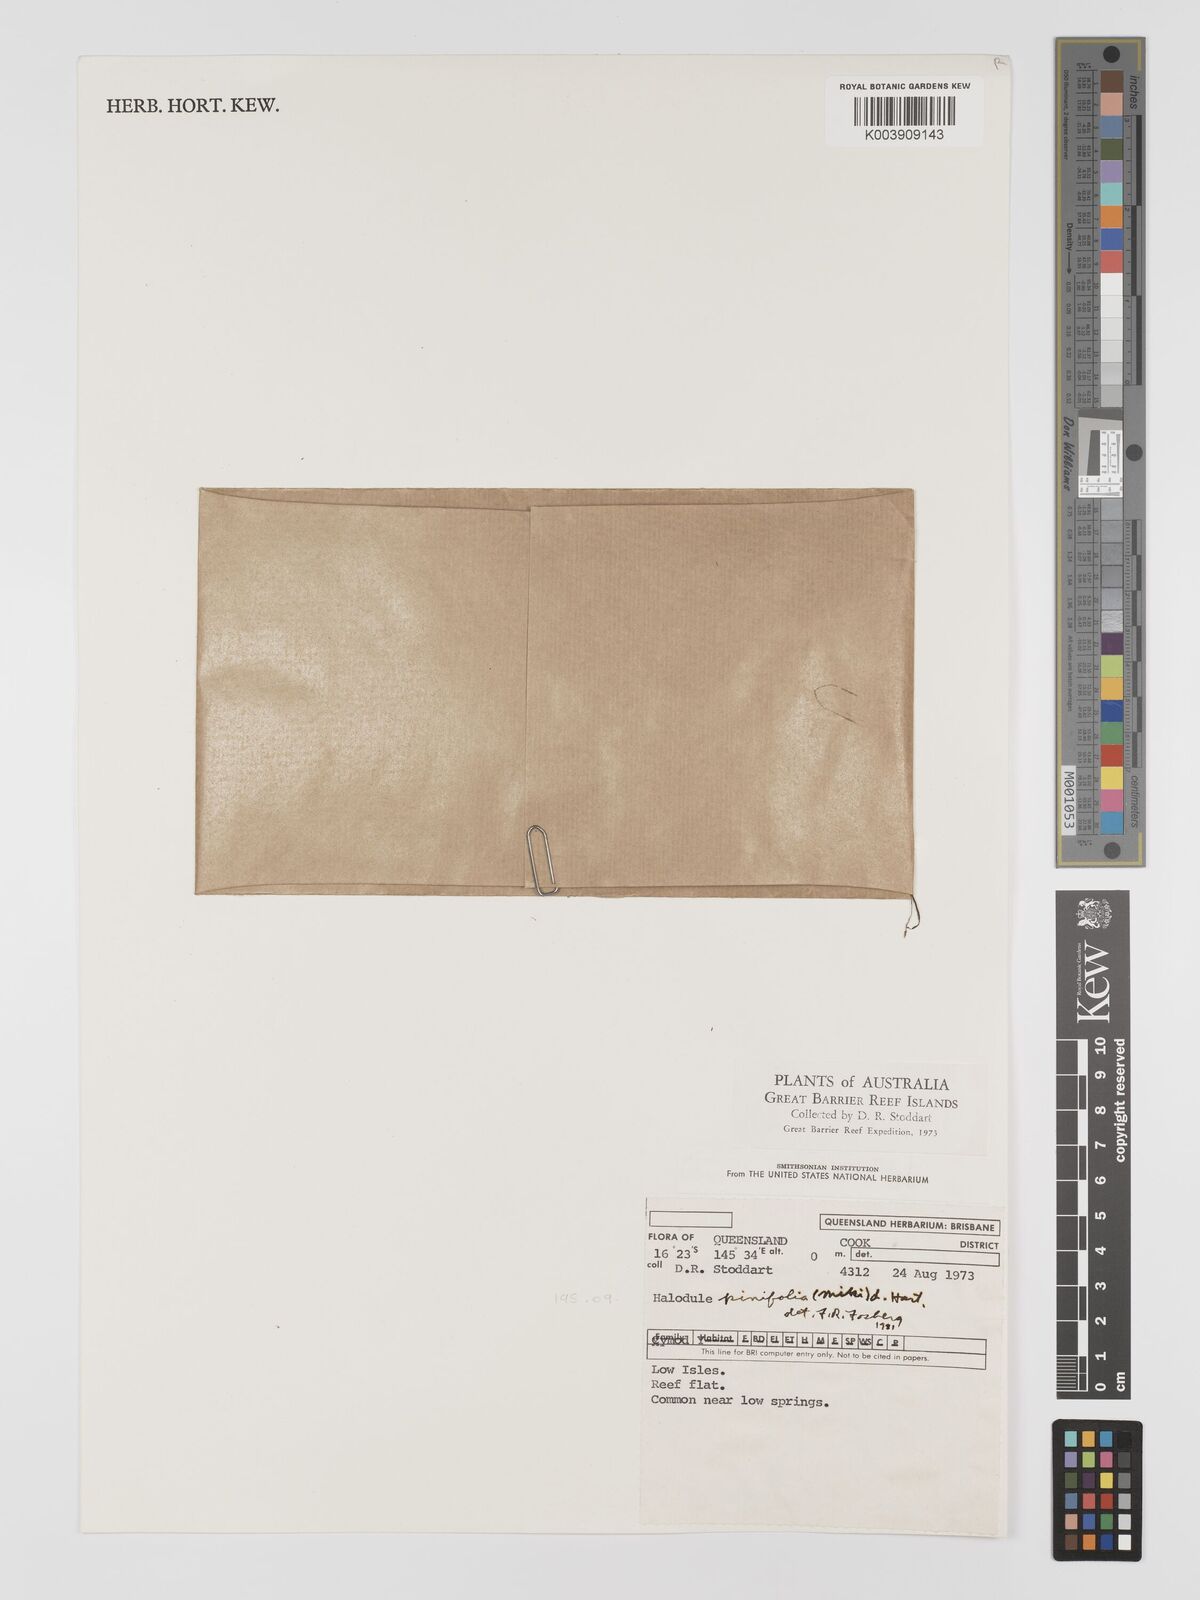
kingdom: Plantae
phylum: Tracheophyta
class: Liliopsida
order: Alismatales
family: Cymodoceaceae
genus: Halodule
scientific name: Halodule pinifolia
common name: Species code: hp
